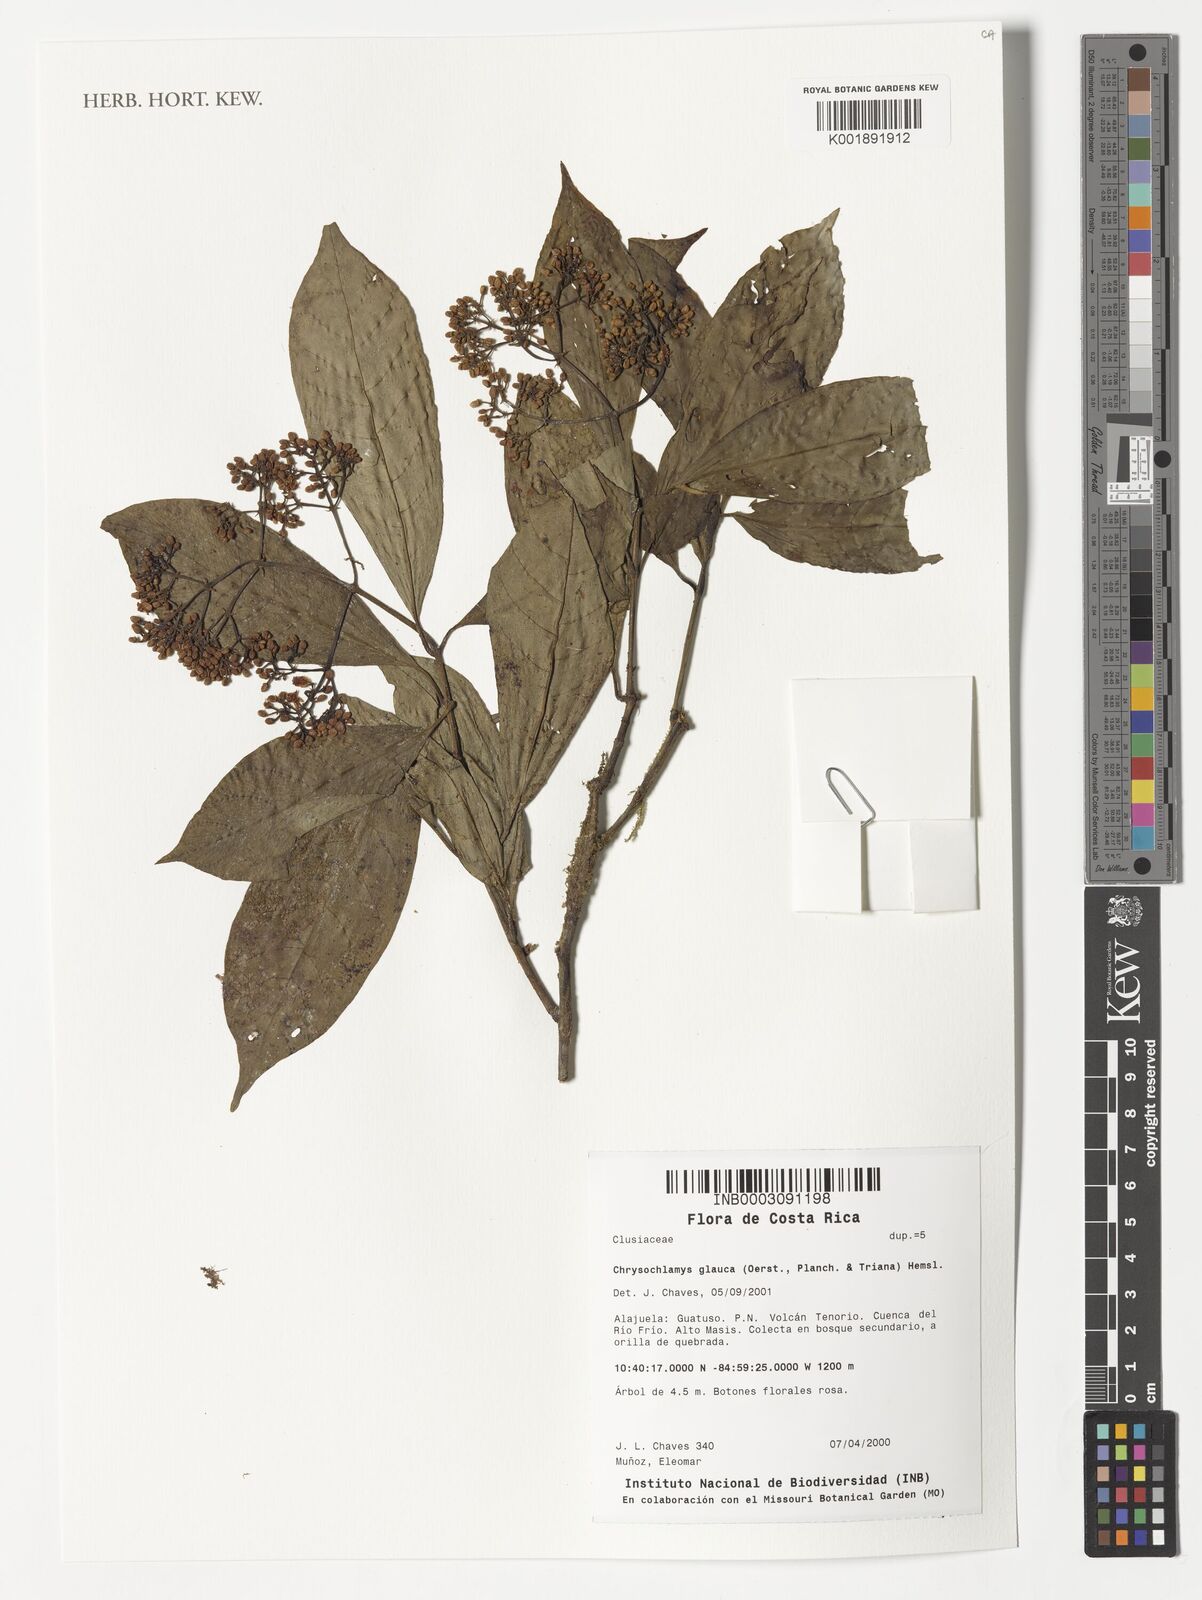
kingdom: Plantae
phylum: Tracheophyta
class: Magnoliopsida
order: Malpighiales
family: Clusiaceae
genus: Chrysochlamys
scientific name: Chrysochlamys glauca
